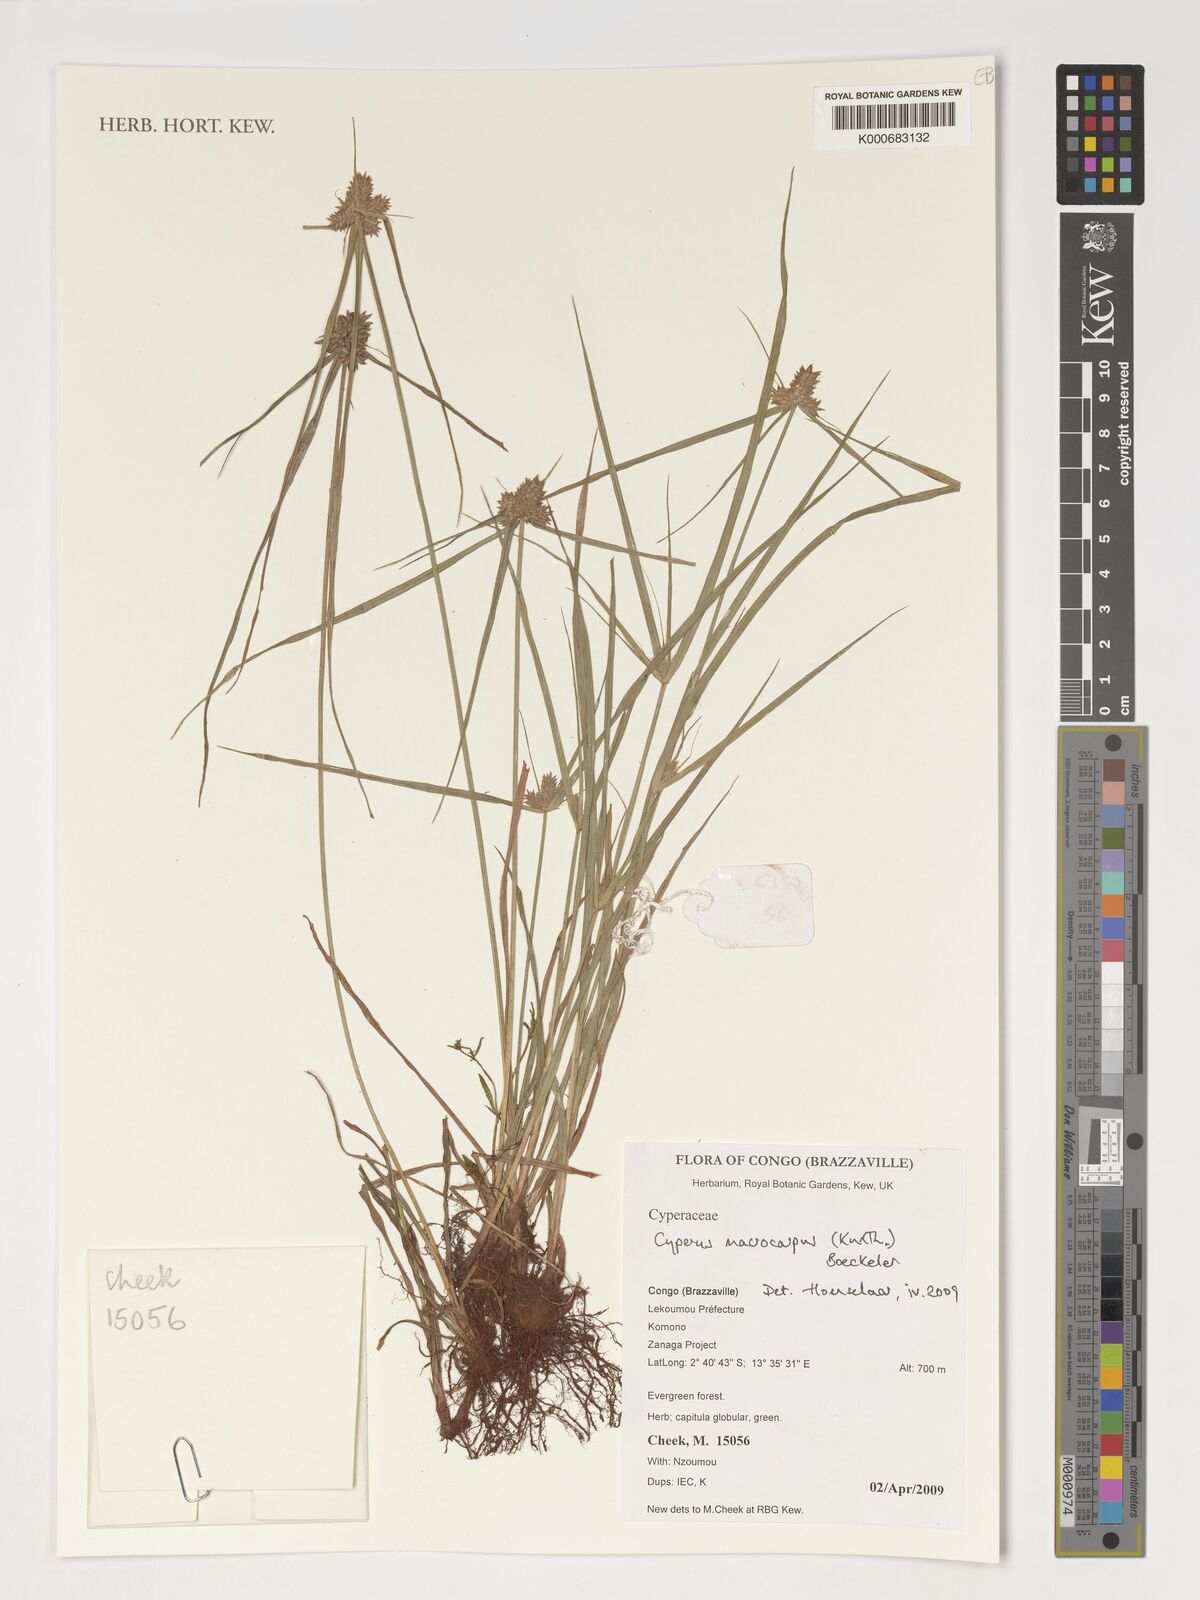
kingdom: Plantae
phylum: Tracheophyta
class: Liliopsida
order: Poales
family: Cyperaceae
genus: Cyperus
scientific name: Cyperus macrocarpus
